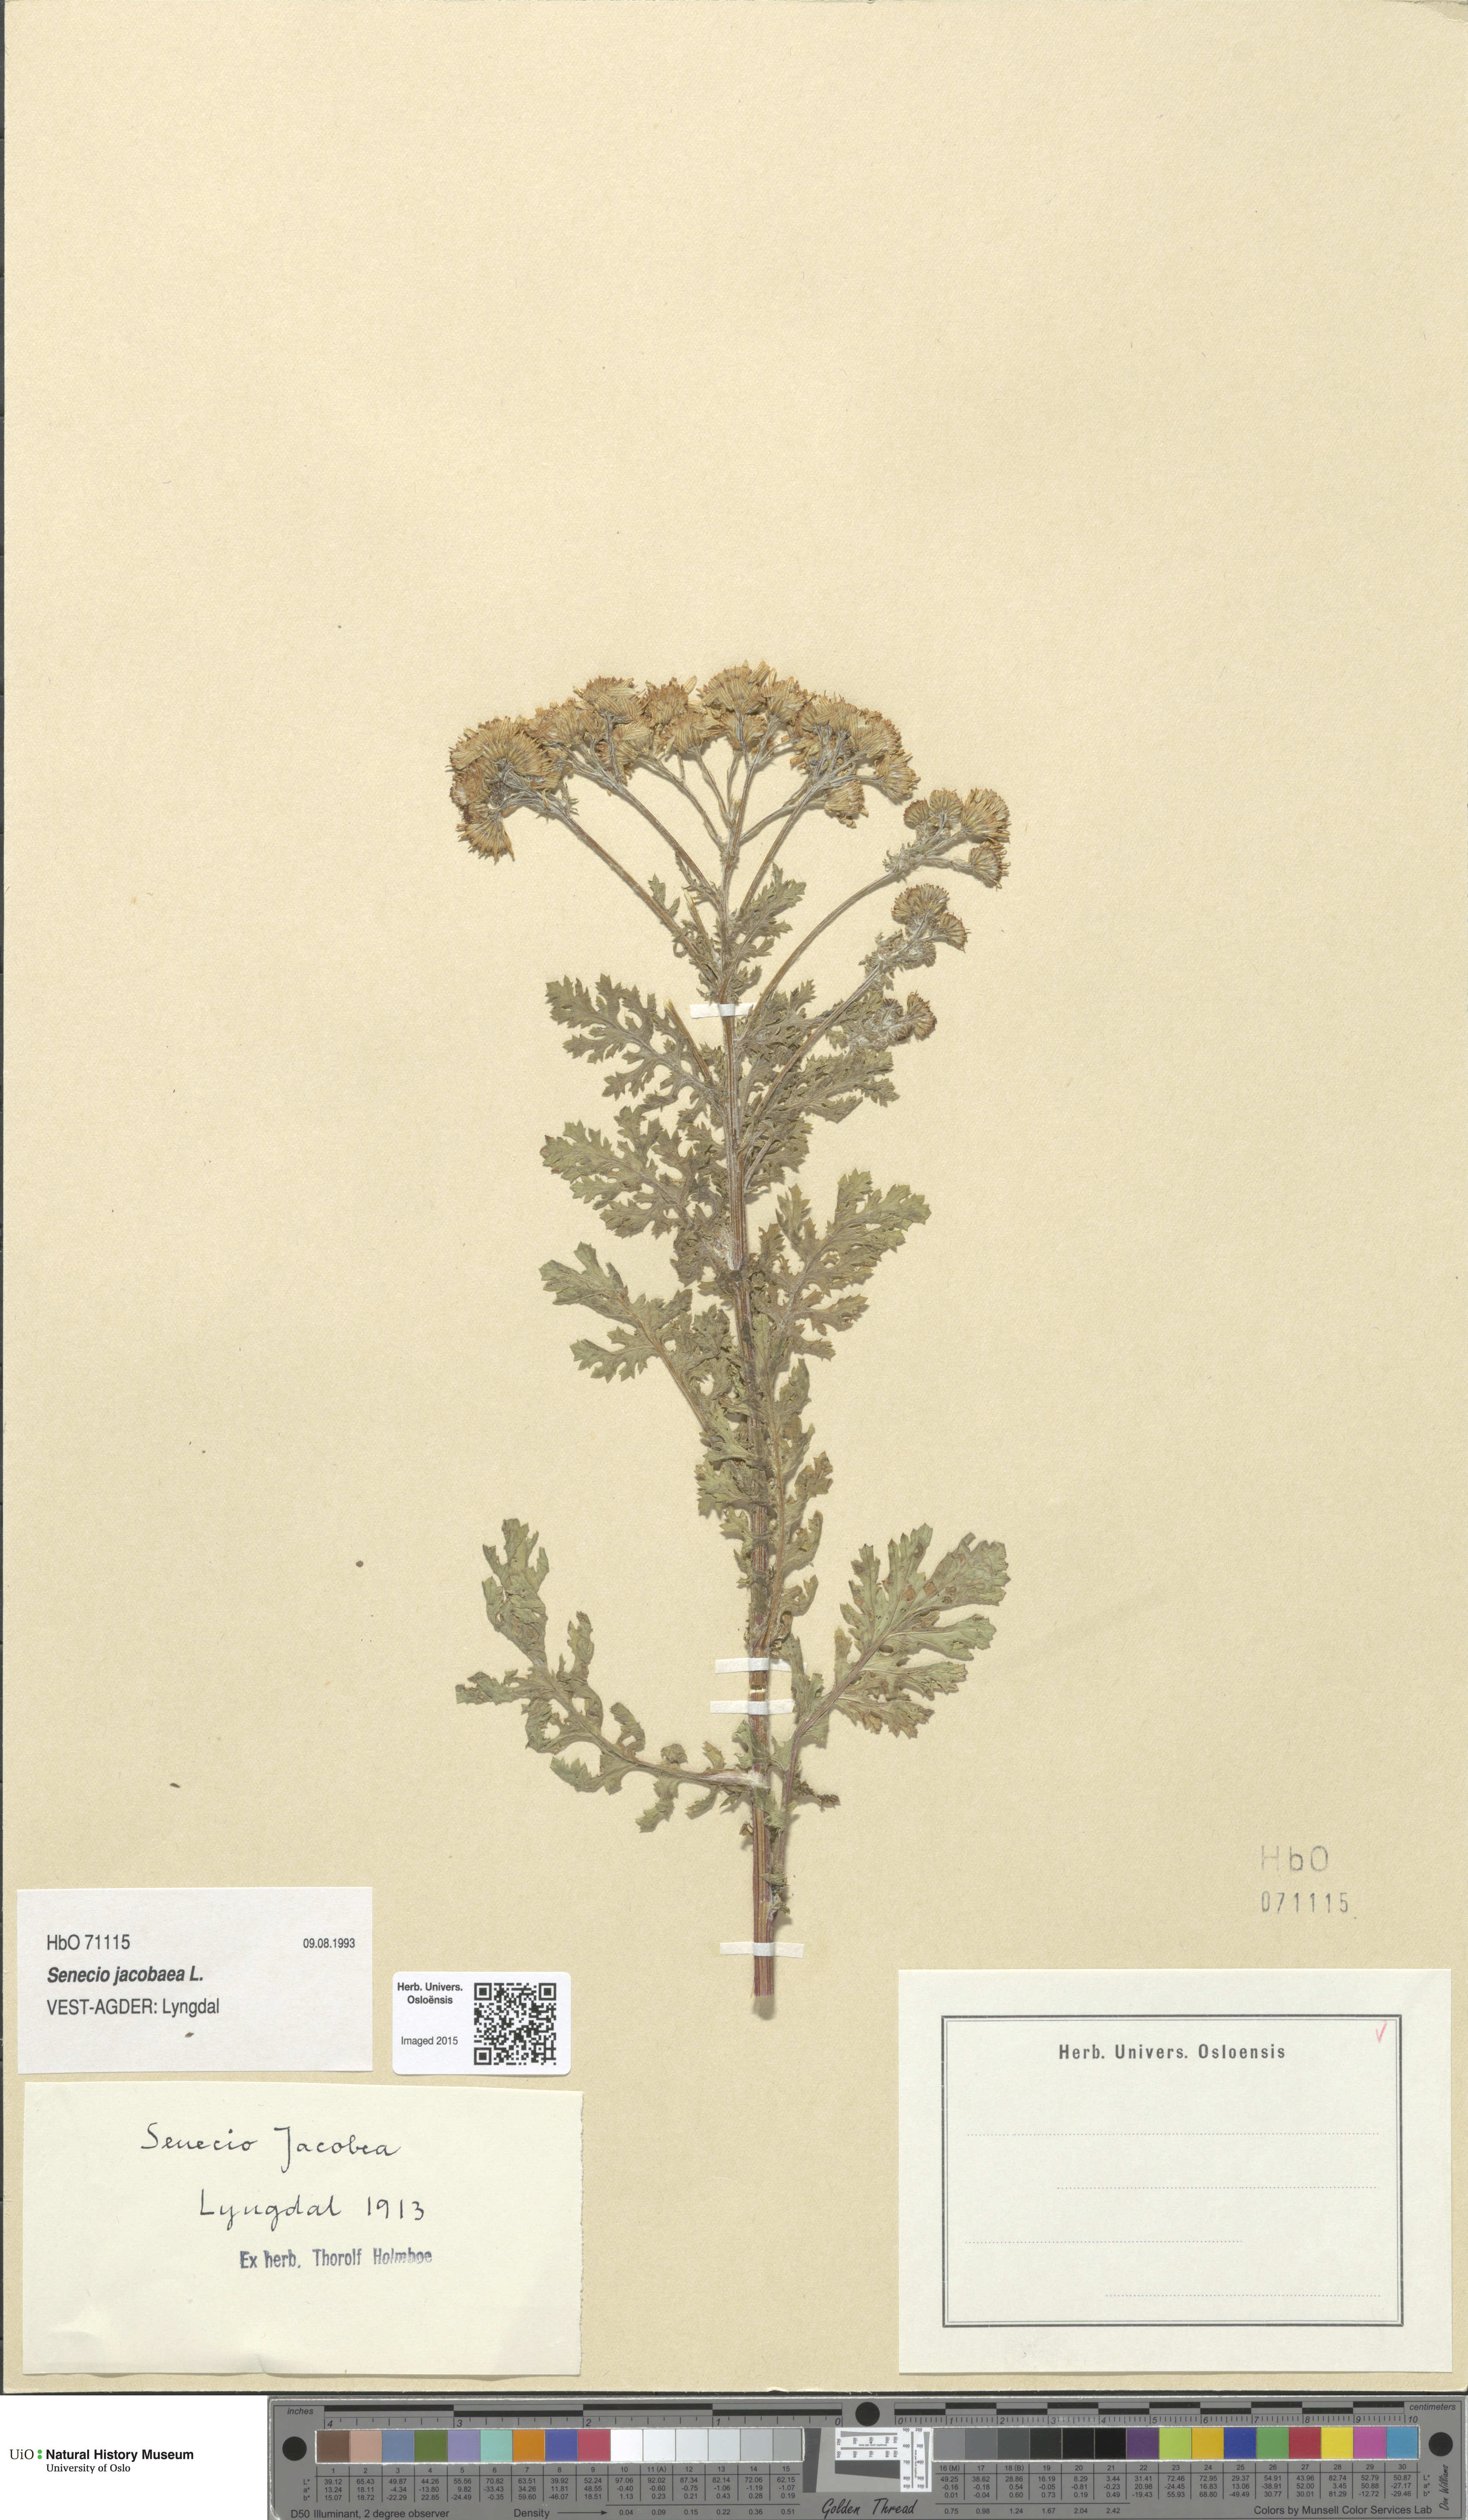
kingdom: Plantae
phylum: Tracheophyta
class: Magnoliopsida
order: Asterales
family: Asteraceae
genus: Jacobaea
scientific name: Jacobaea vulgaris
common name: Stinking willie
